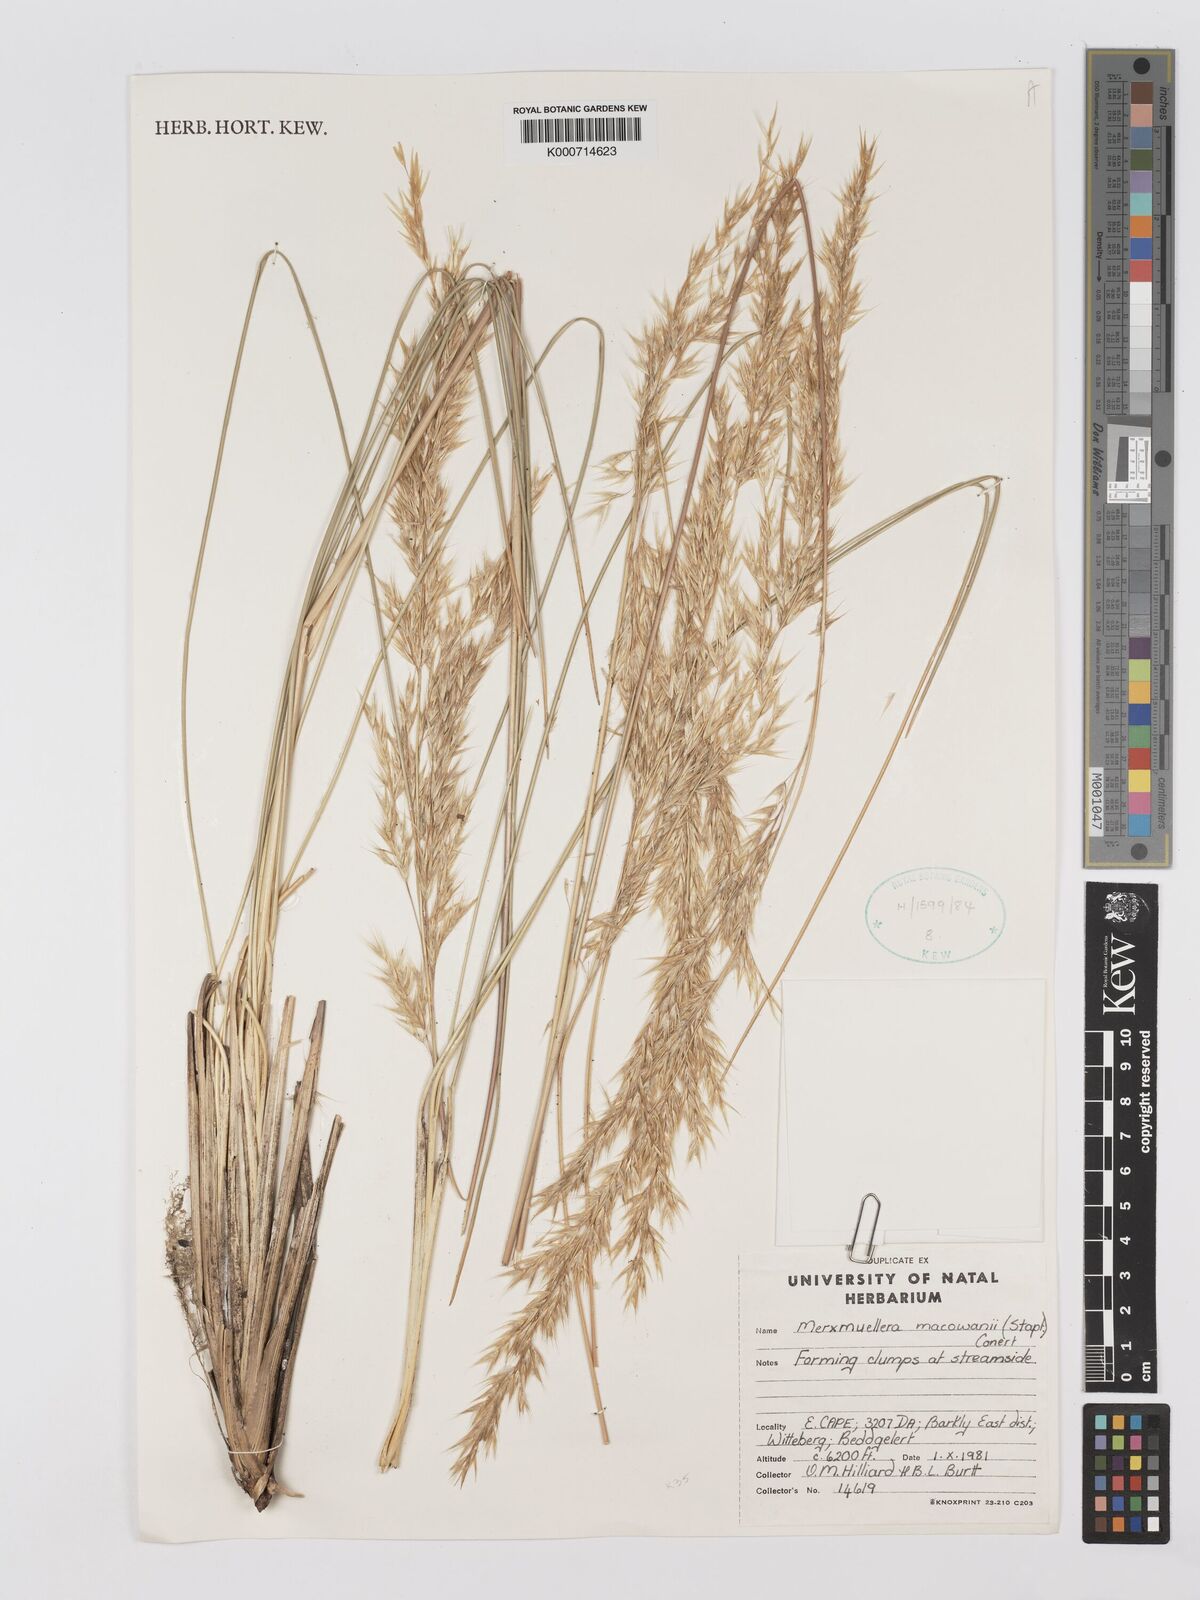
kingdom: Plantae
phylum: Tracheophyta
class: Liliopsida
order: Poales
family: Poaceae
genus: Rytidosperma
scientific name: Rytidosperma
